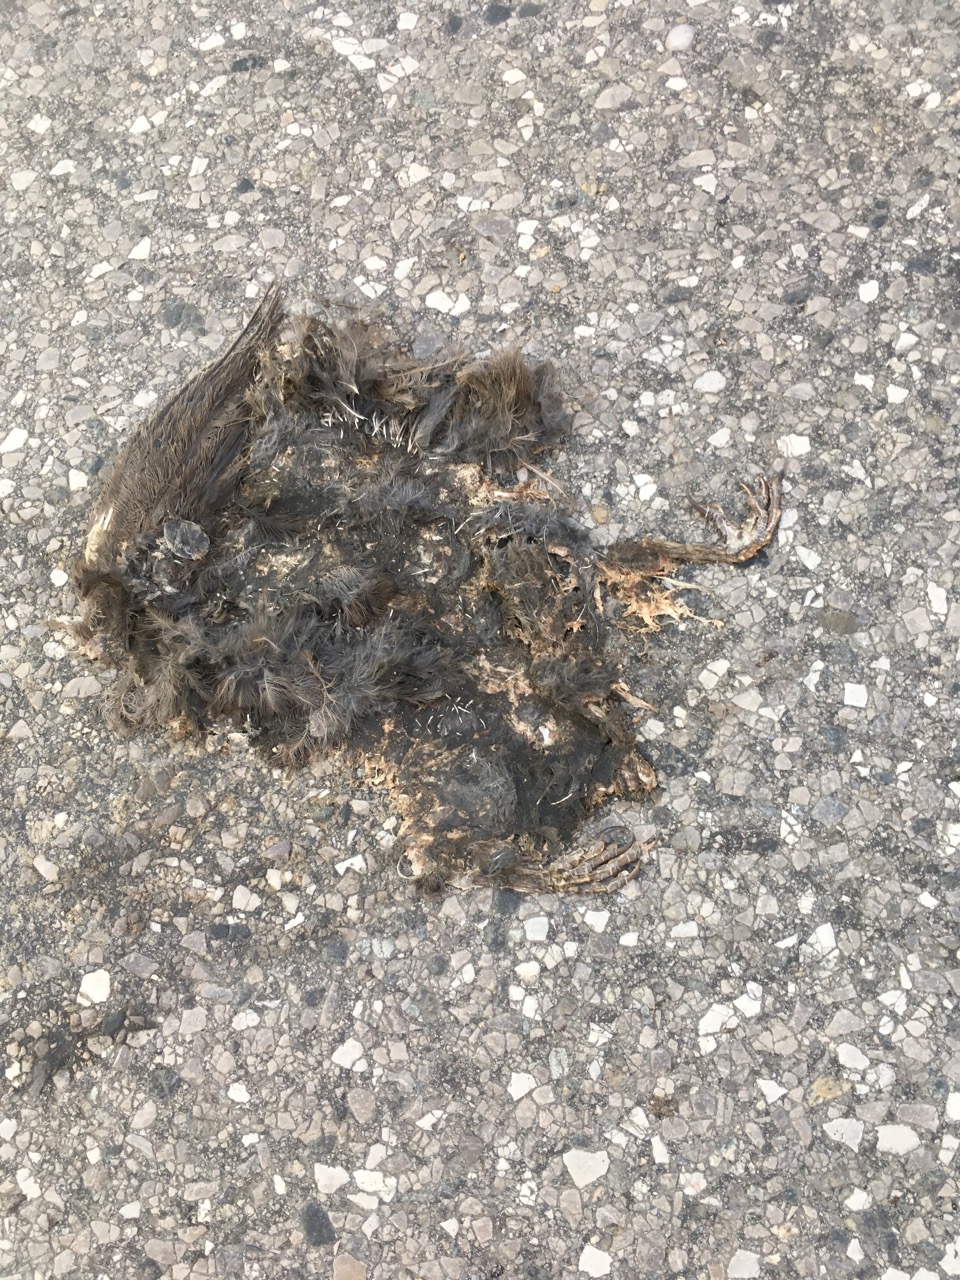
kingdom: Animalia
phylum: Chordata
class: Aves
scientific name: Aves
